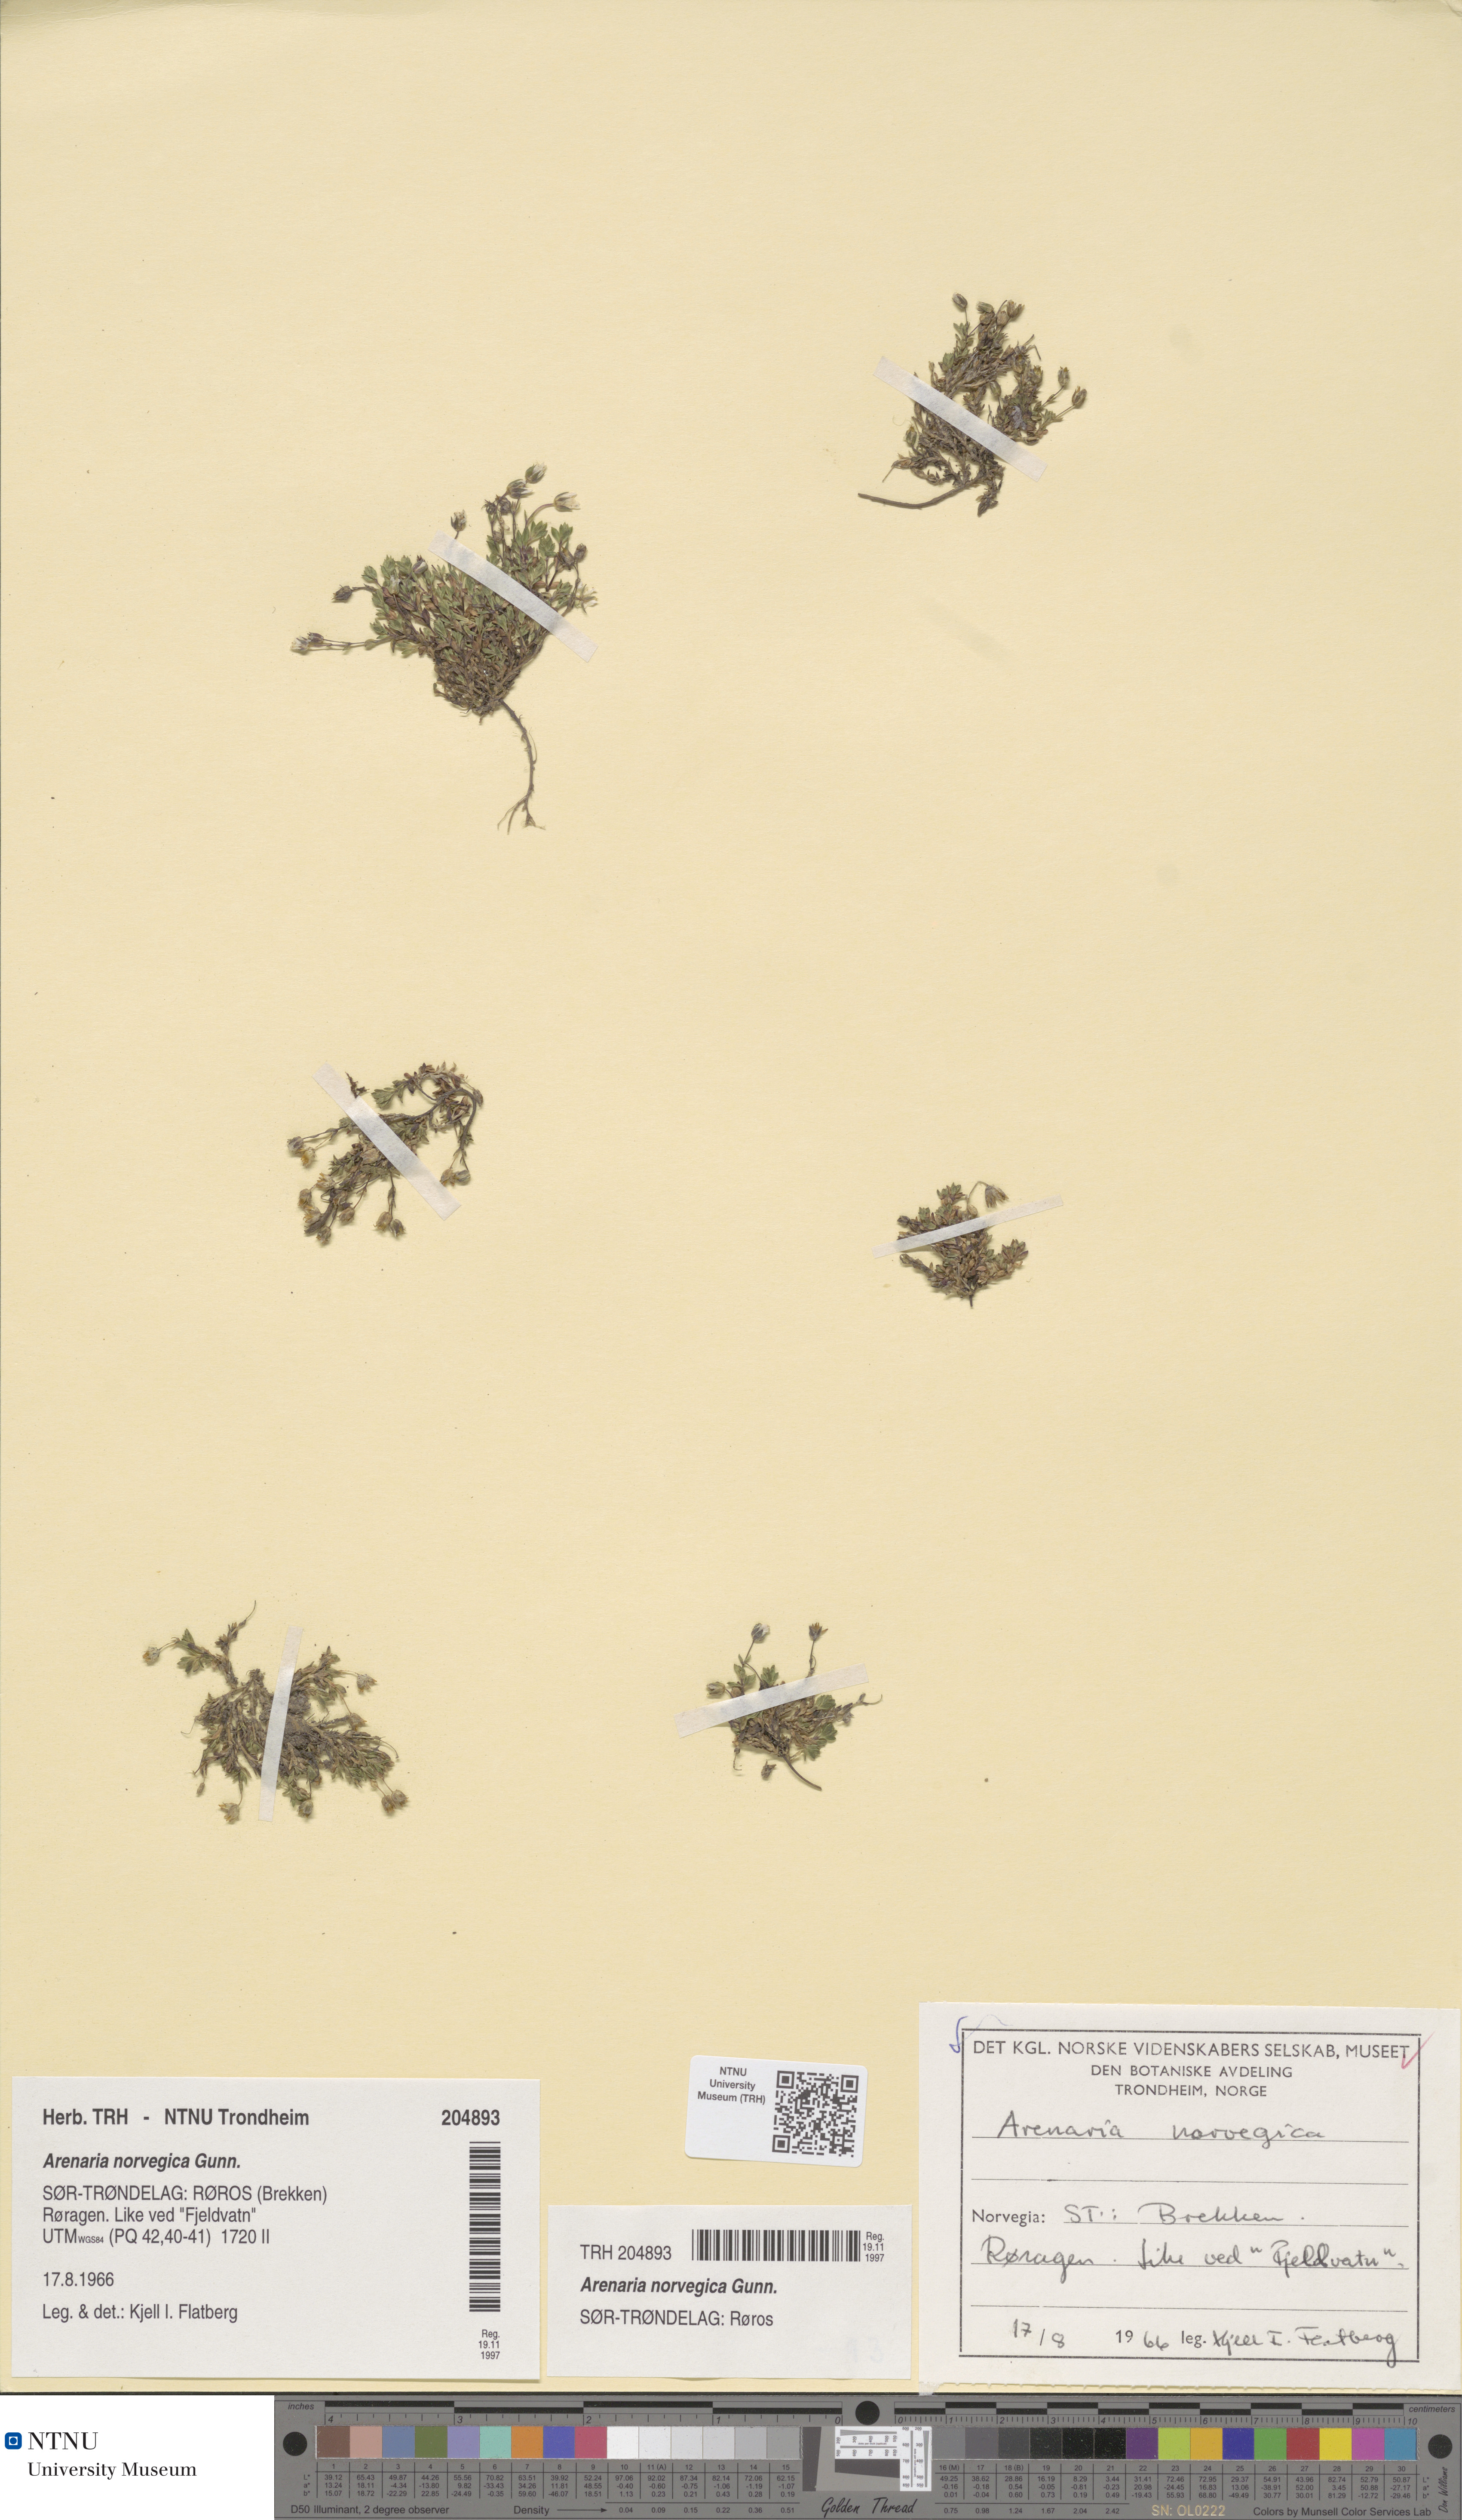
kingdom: Plantae
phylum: Tracheophyta
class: Magnoliopsida
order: Caryophyllales
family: Caryophyllaceae
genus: Arenaria
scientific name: Arenaria norvegica
